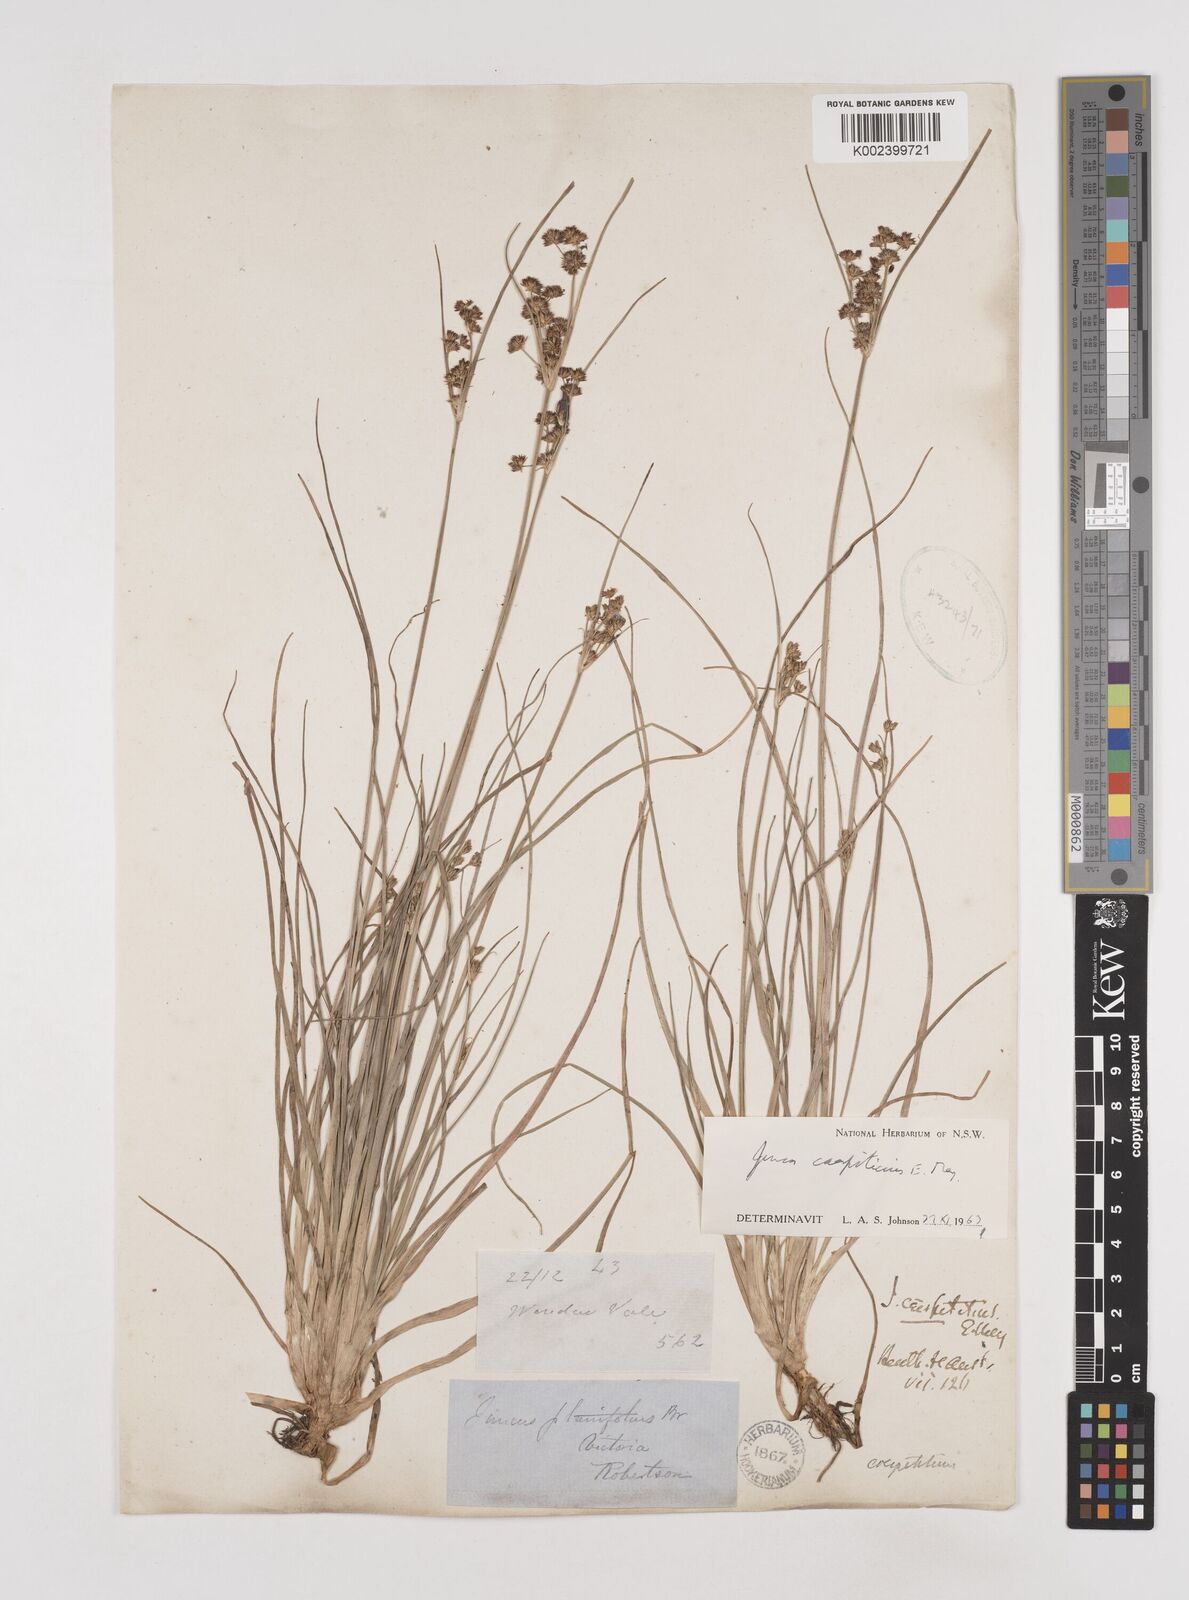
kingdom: Plantae
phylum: Tracheophyta
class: Liliopsida
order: Poales
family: Juncaceae
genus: Juncus
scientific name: Juncus caespiticius
